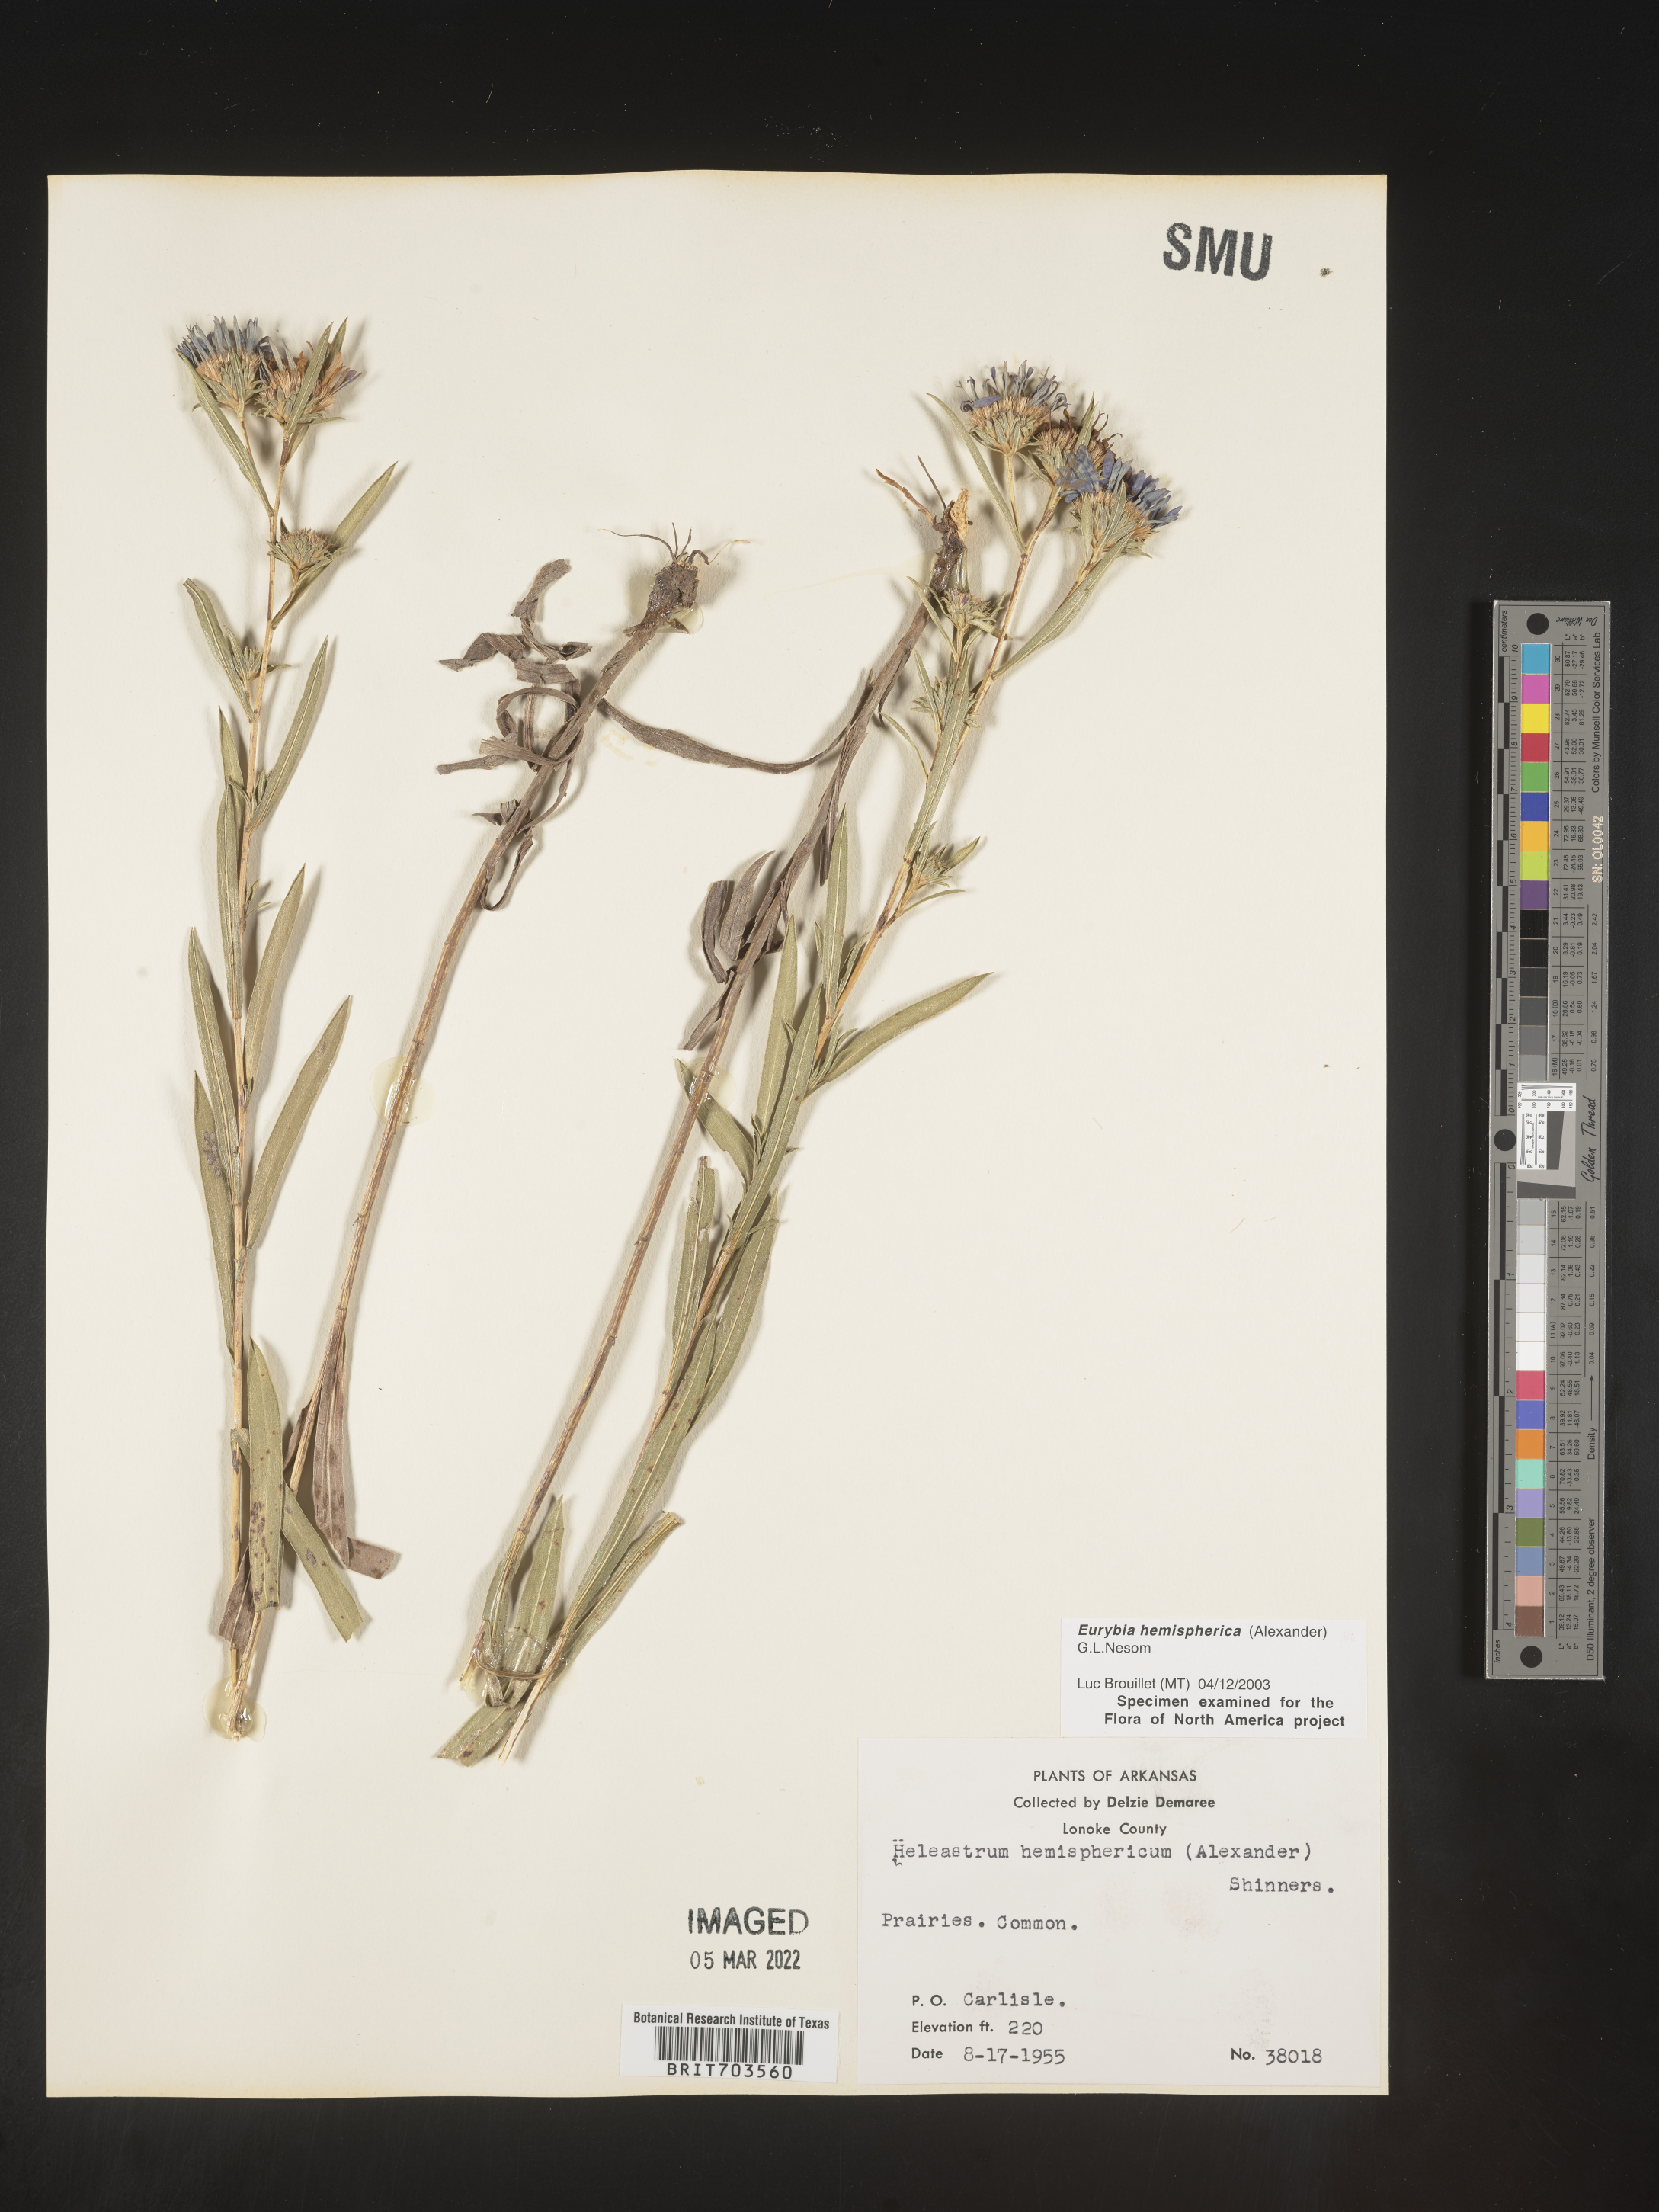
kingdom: Plantae
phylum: Tracheophyta
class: Magnoliopsida
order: Asterales
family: Asteraceae
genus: Eurybia
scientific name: Eurybia hemispherica
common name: Showy aster
